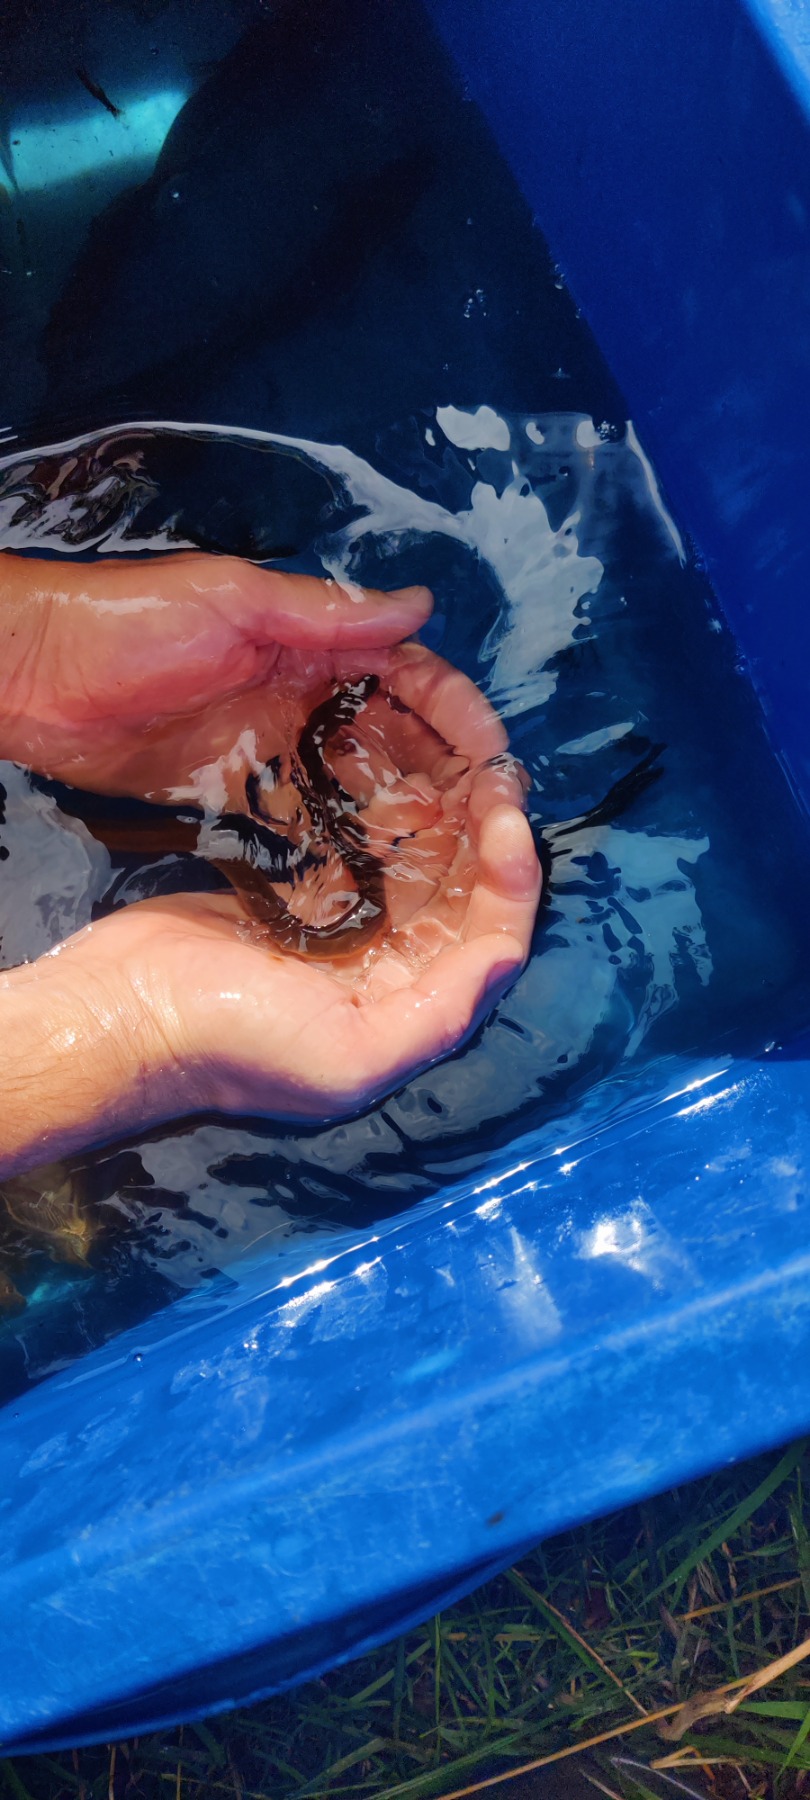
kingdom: Animalia
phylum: Chordata
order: Anguilliformes
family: Anguillidae
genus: Anguilla
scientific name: Anguilla anguilla
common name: Europæisk ål
